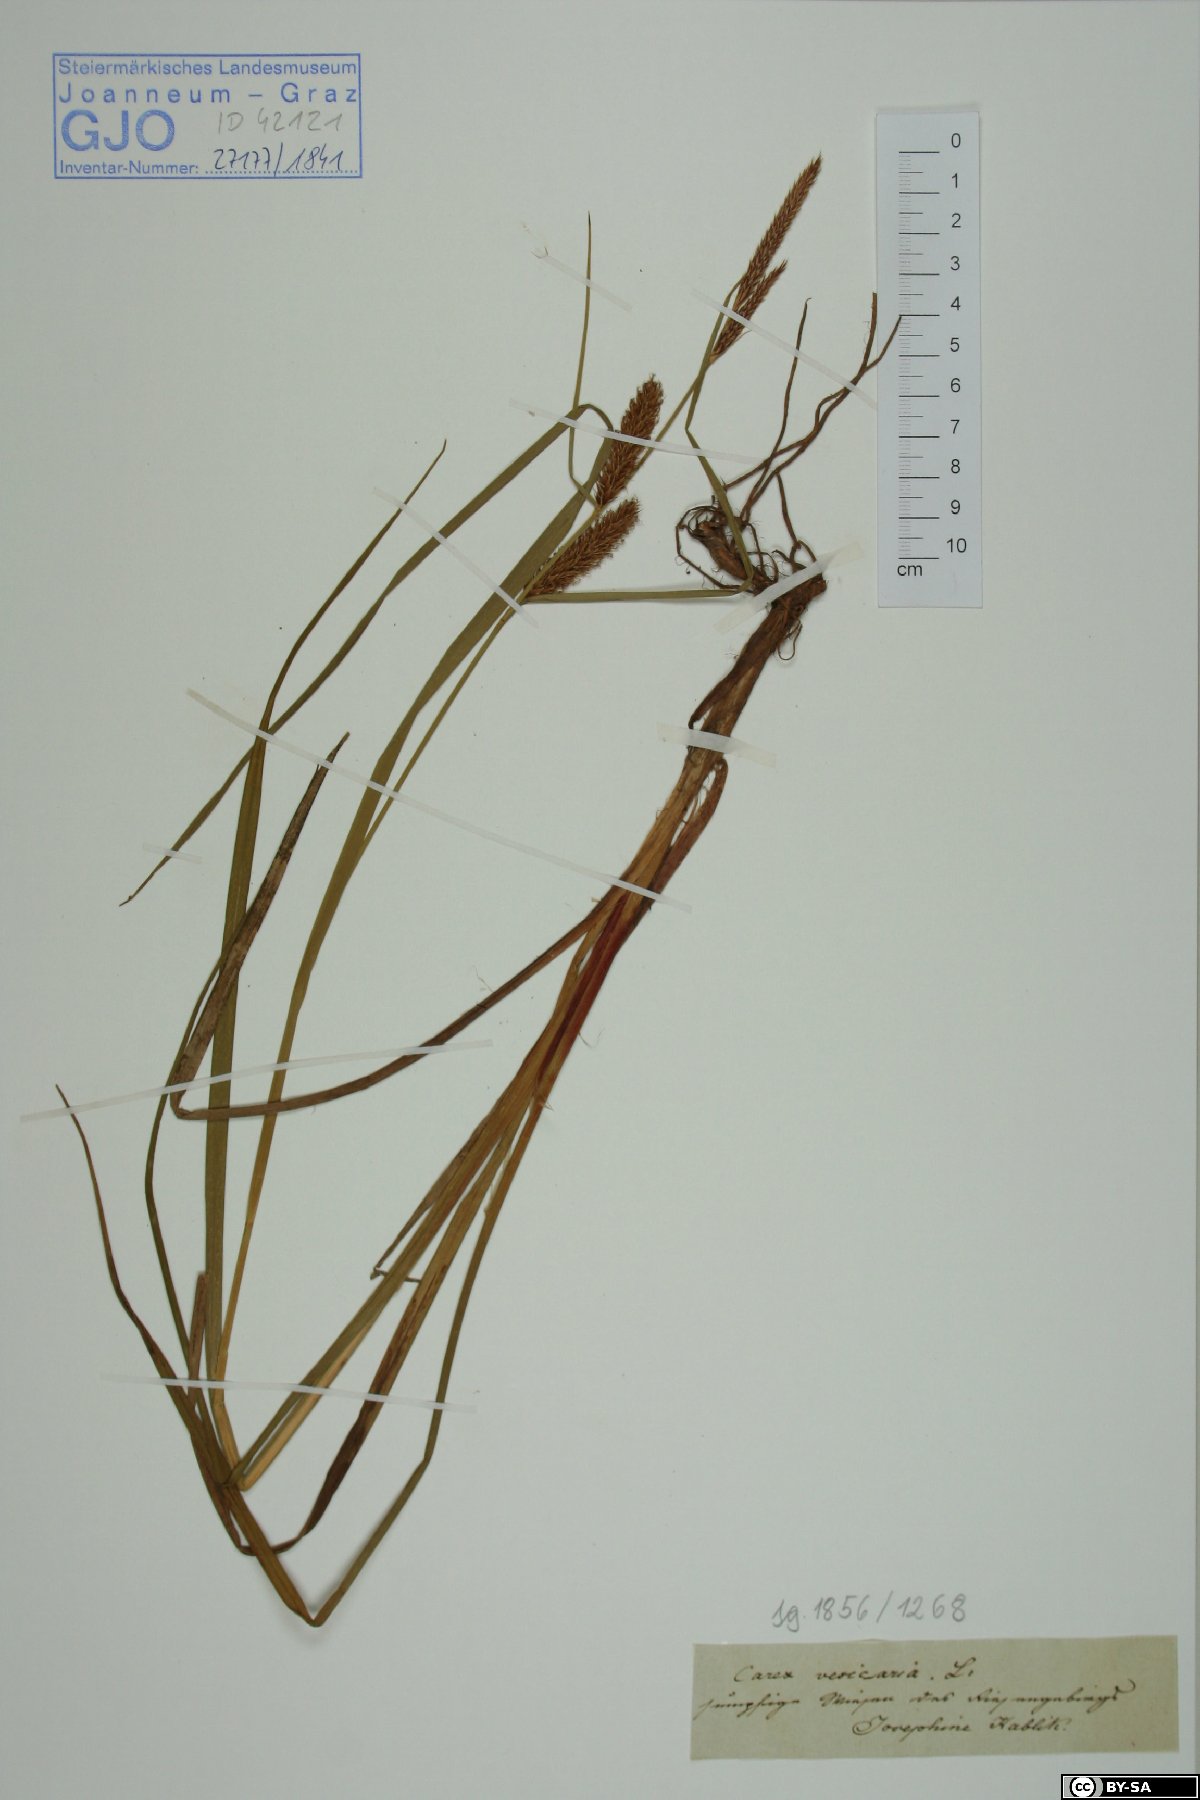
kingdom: Plantae
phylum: Tracheophyta
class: Liliopsida
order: Poales
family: Cyperaceae
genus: Carex
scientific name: Carex vesicaria
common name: Bladder-sedge
